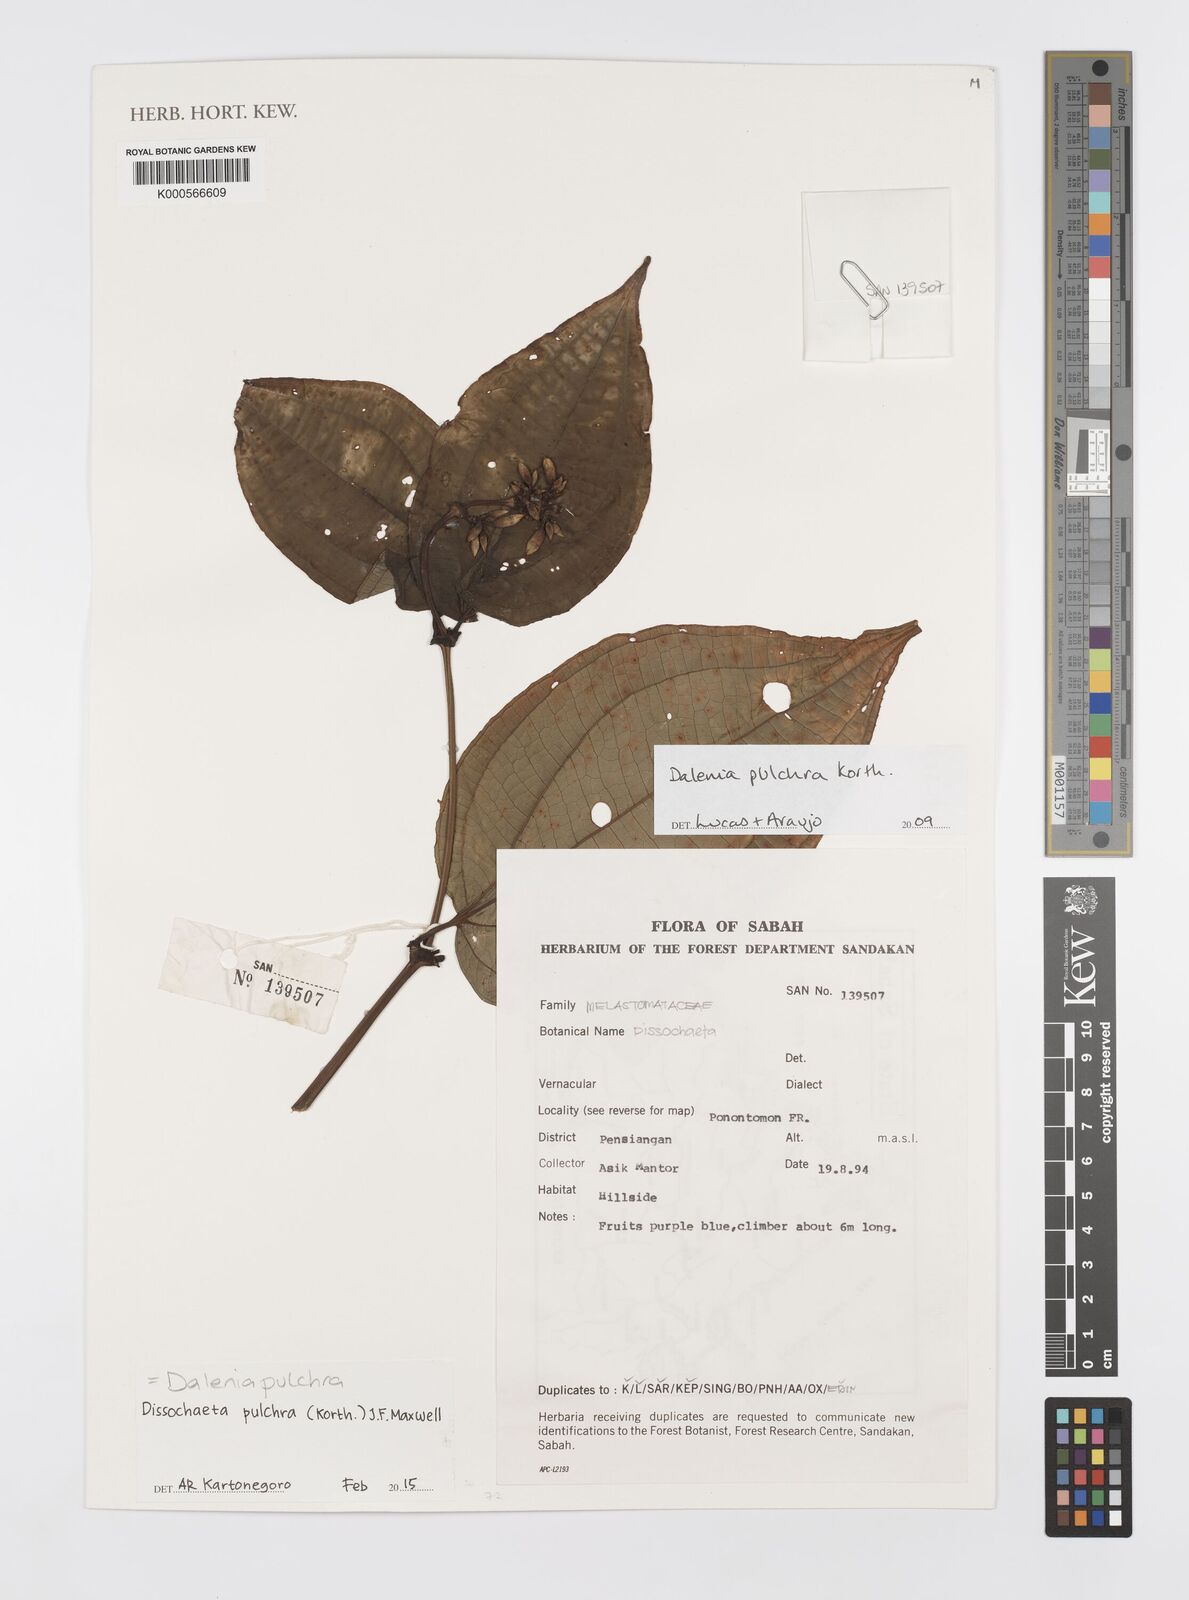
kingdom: Plantae
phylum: Tracheophyta
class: Magnoliopsida
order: Myrtales
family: Melastomataceae
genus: Dissochaeta
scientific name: Dissochaeta
